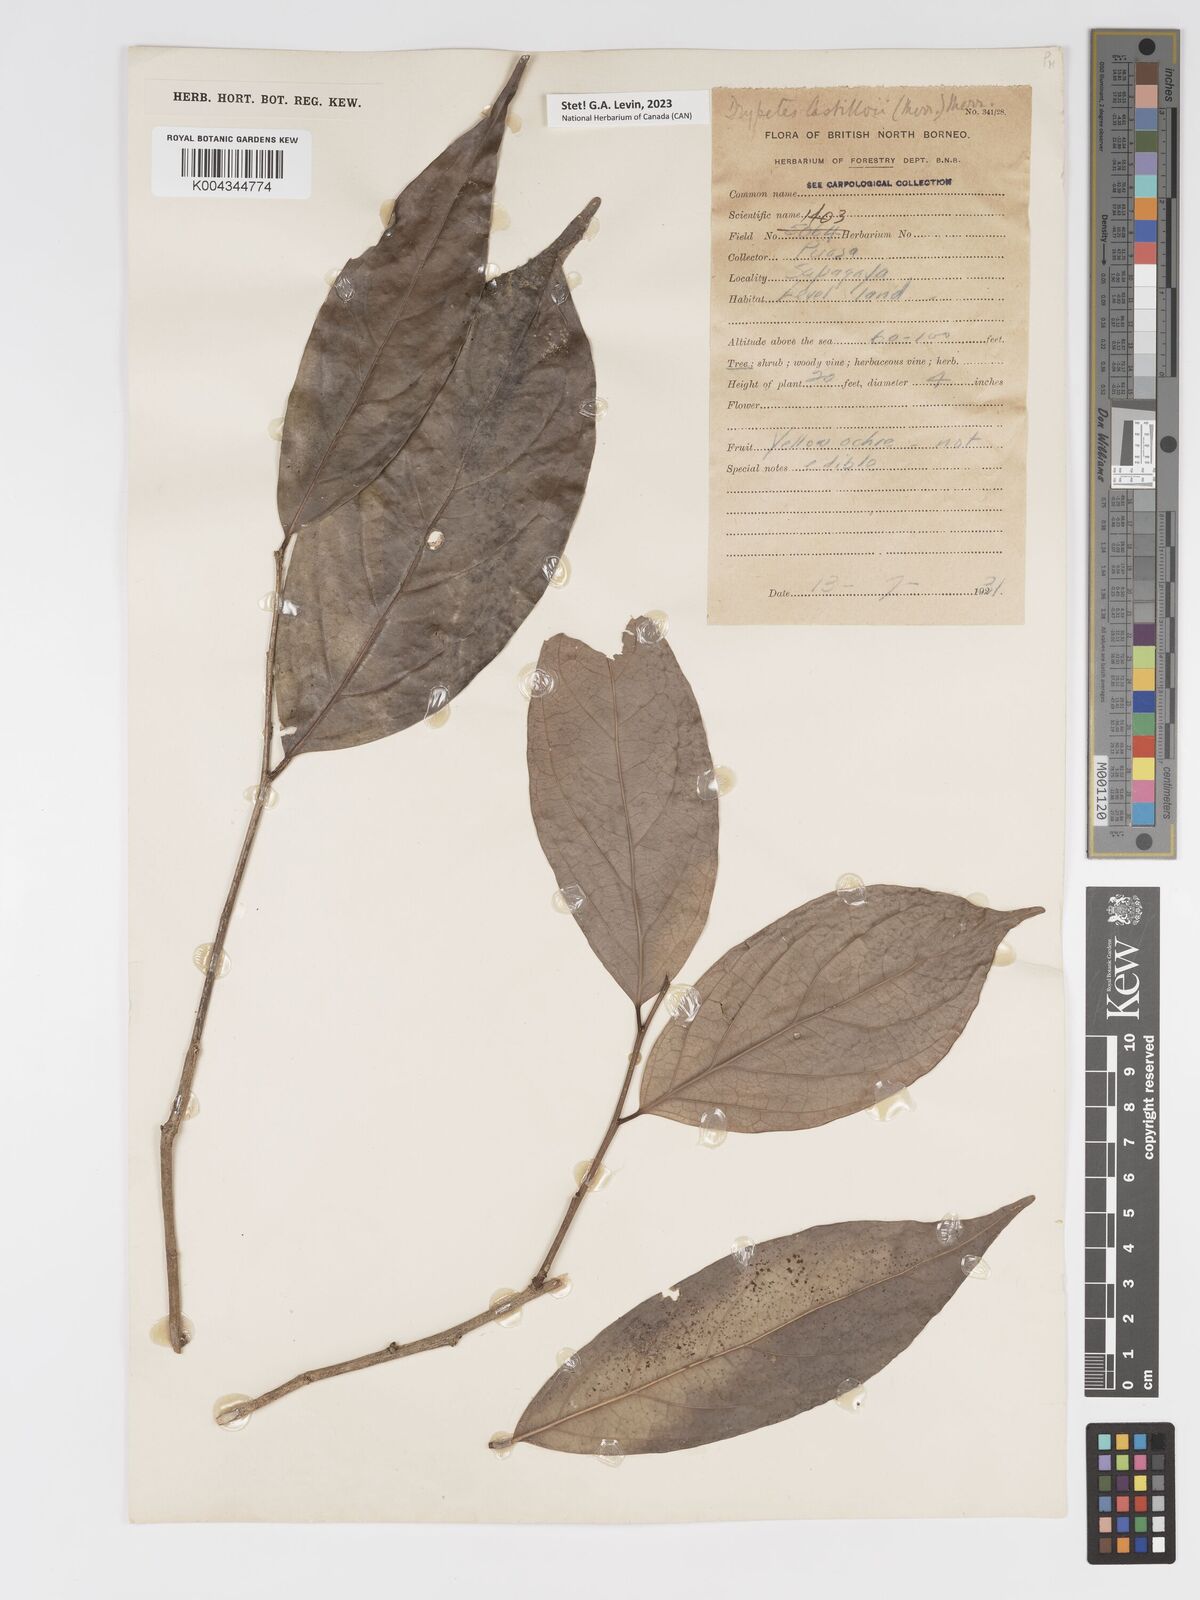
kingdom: Plantae
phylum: Tracheophyta
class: Magnoliopsida
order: Malpighiales
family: Putranjivaceae
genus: Drypetes
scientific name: Drypetes castilloi
